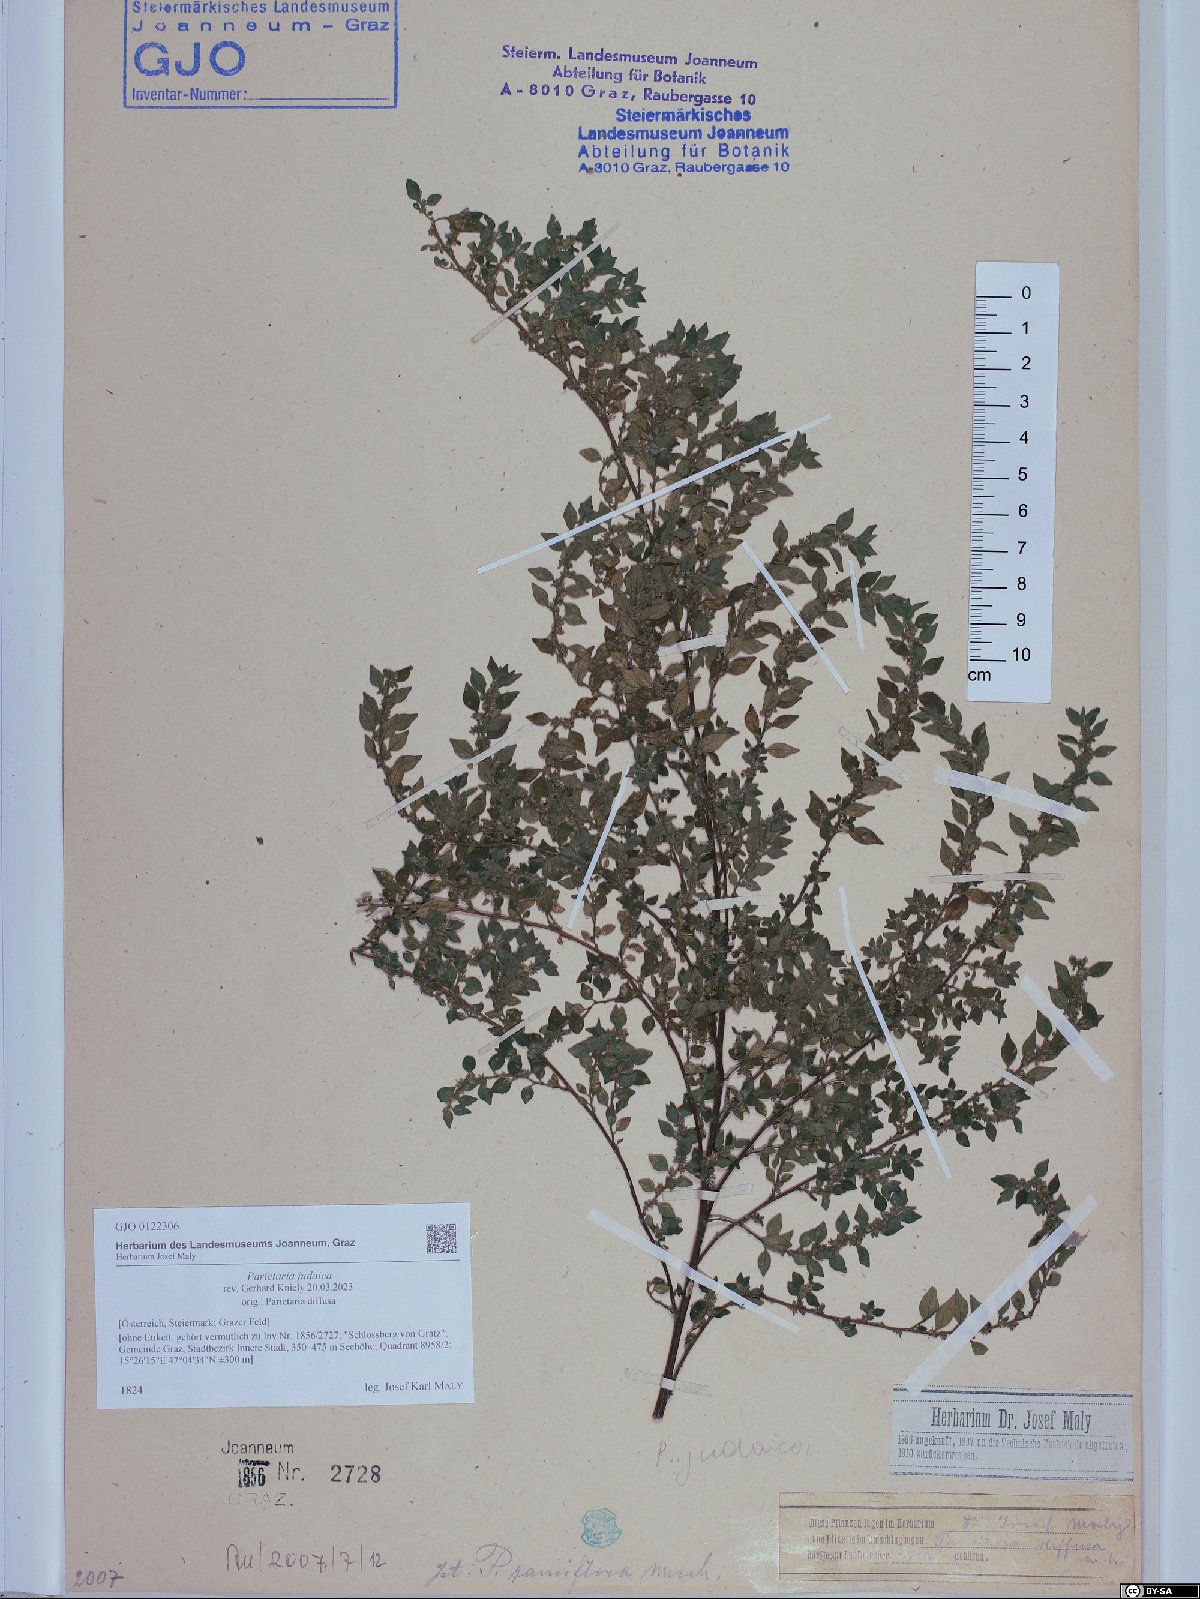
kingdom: Plantae
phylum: Tracheophyta
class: Magnoliopsida
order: Rosales
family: Urticaceae
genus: Parietaria
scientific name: Parietaria judaica
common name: Pellitory-of-the-wall
